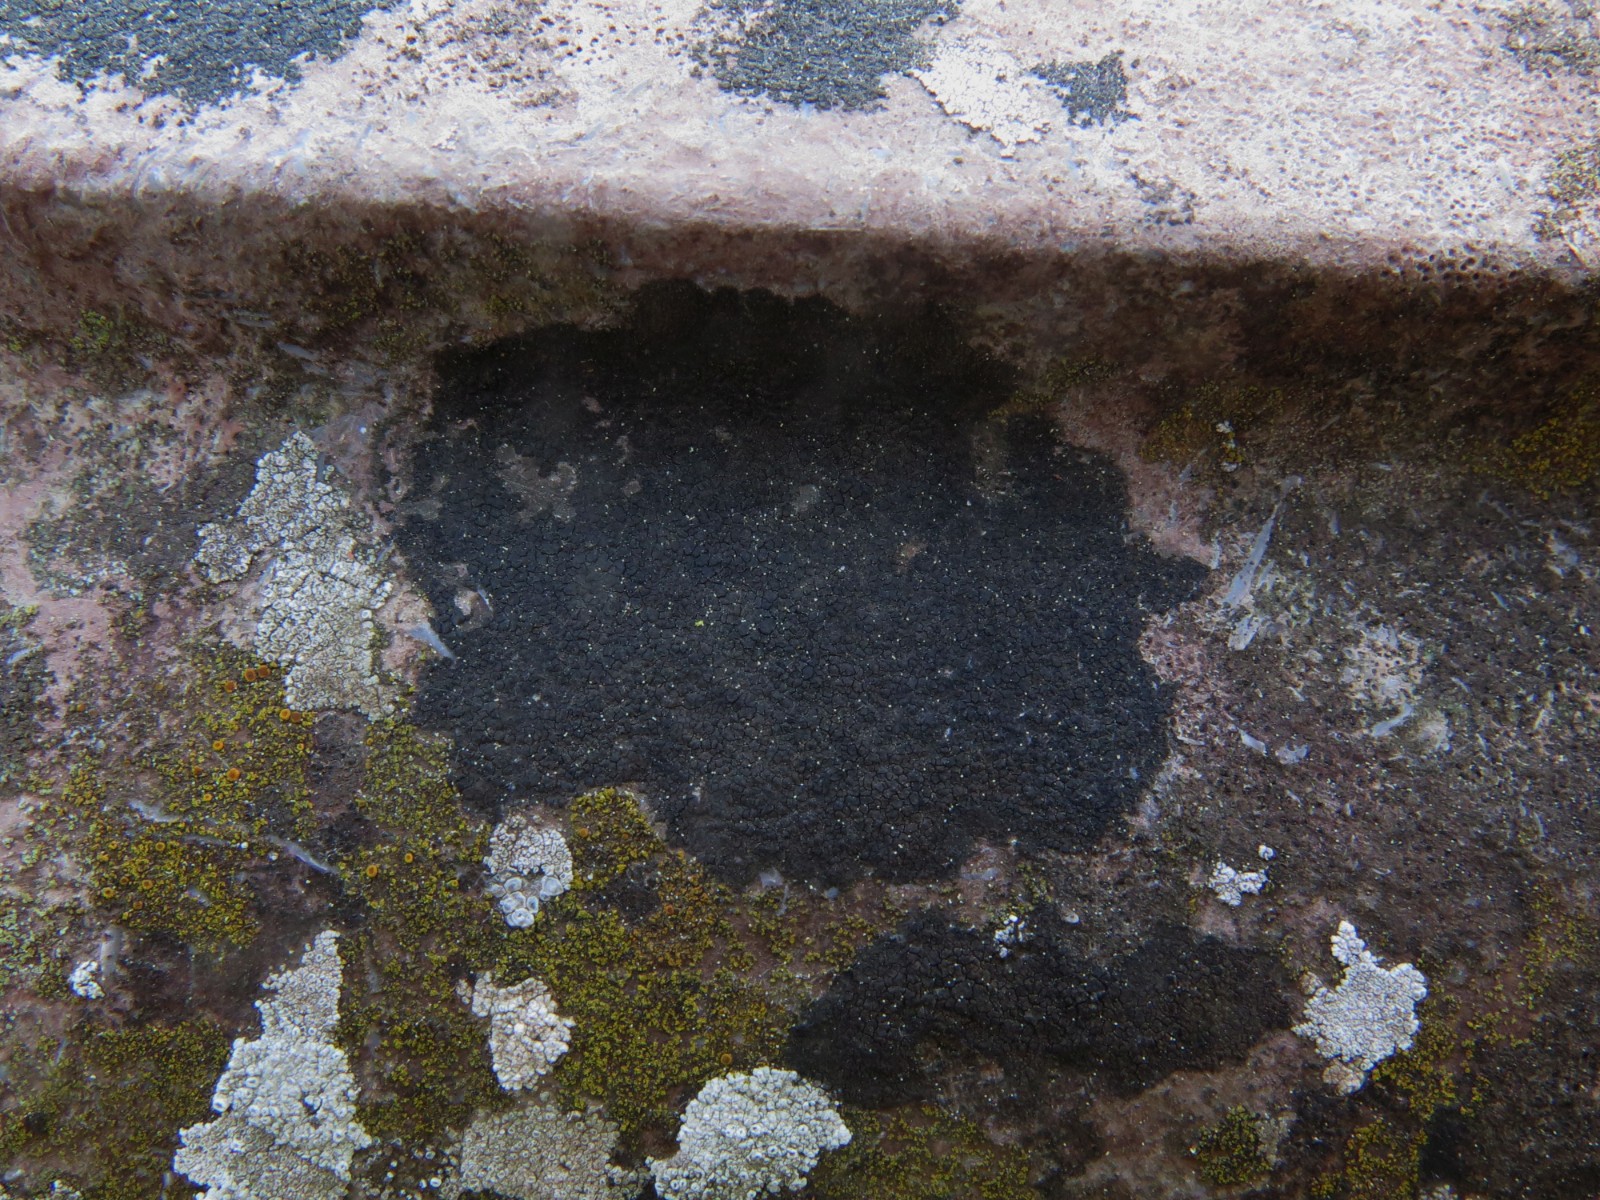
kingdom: Fungi
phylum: Ascomycota
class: Eurotiomycetes
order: Verrucariales
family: Verrucariaceae
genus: Verrucaria
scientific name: Verrucaria nigrescens
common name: sortbrun vortelav
